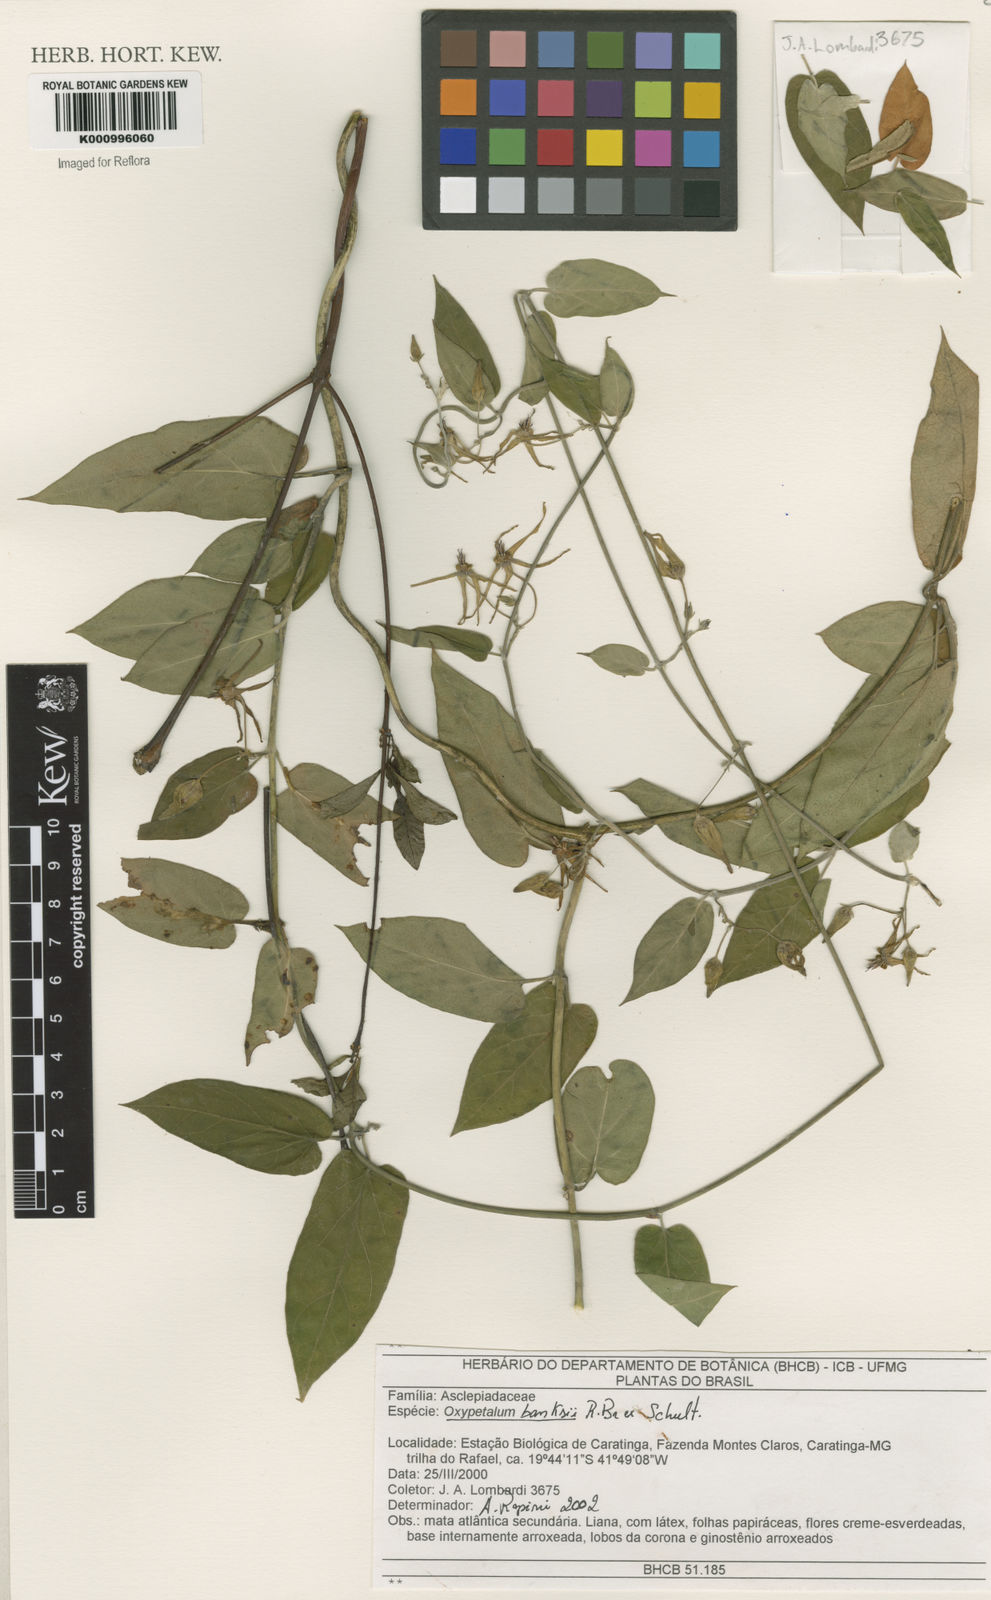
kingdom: Plantae
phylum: Tracheophyta
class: Magnoliopsida
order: Gentianales
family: Apocynaceae
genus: Oxypetalum
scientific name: Oxypetalum banksii
